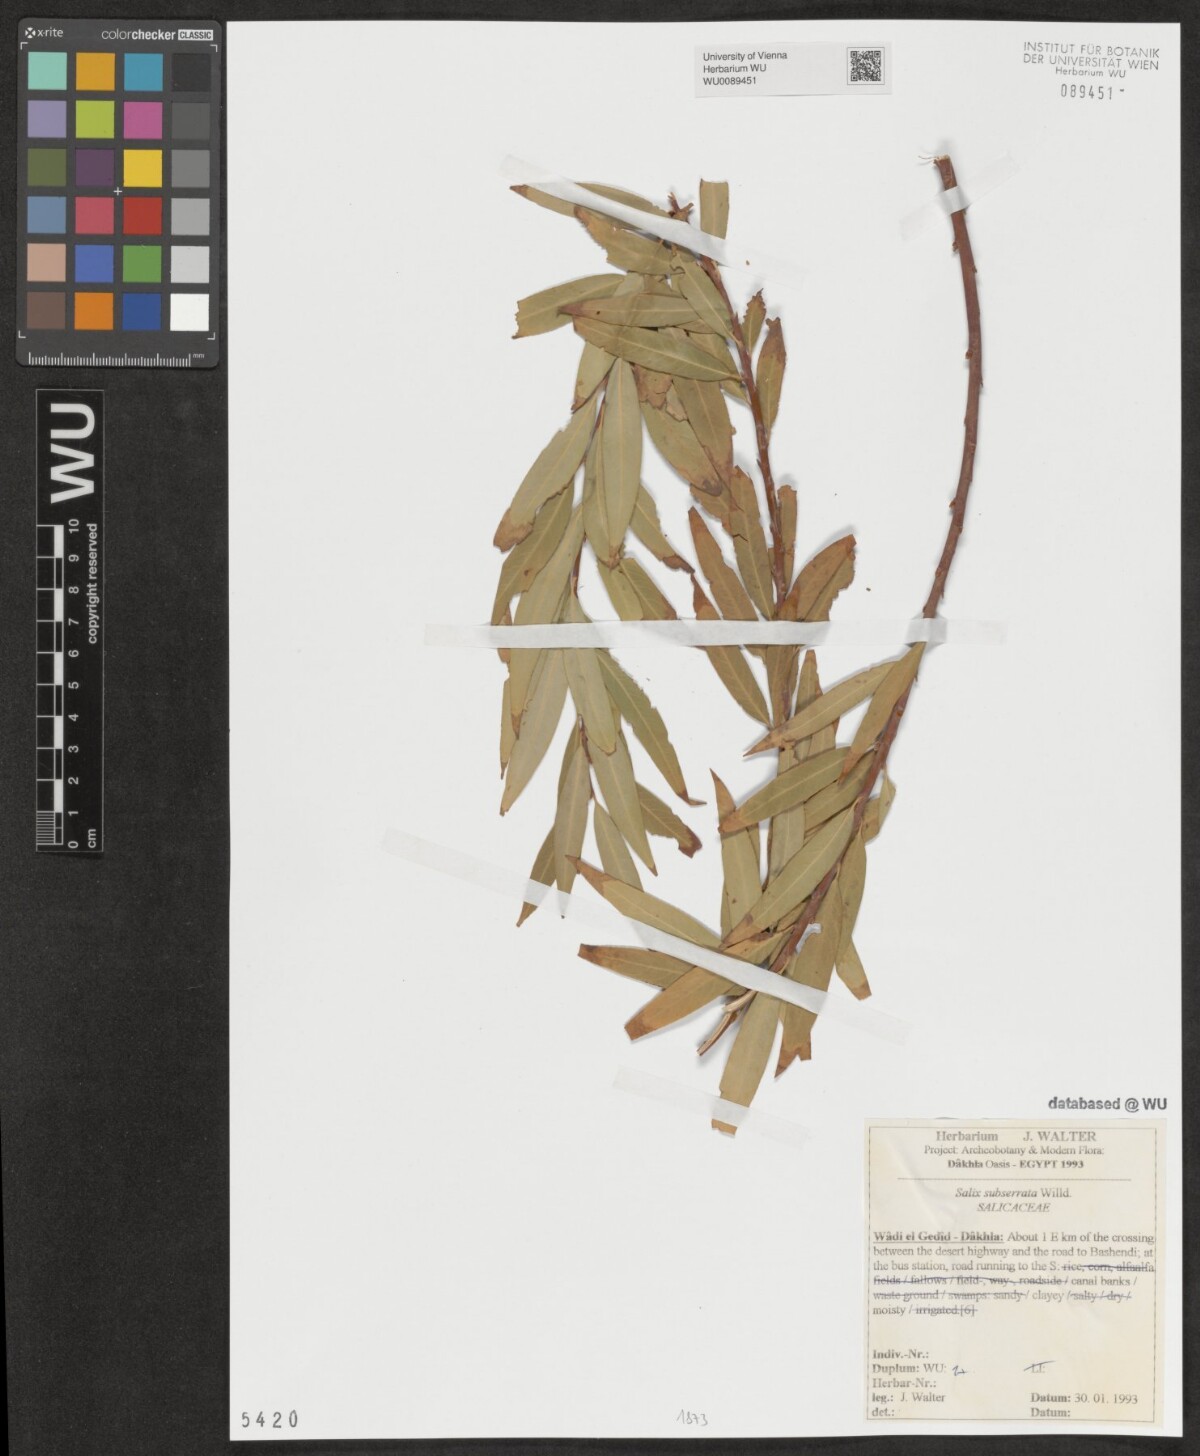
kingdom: Plantae
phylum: Tracheophyta
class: Magnoliopsida
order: Malpighiales
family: Salicaceae
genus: Salix
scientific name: Salix mucronata
